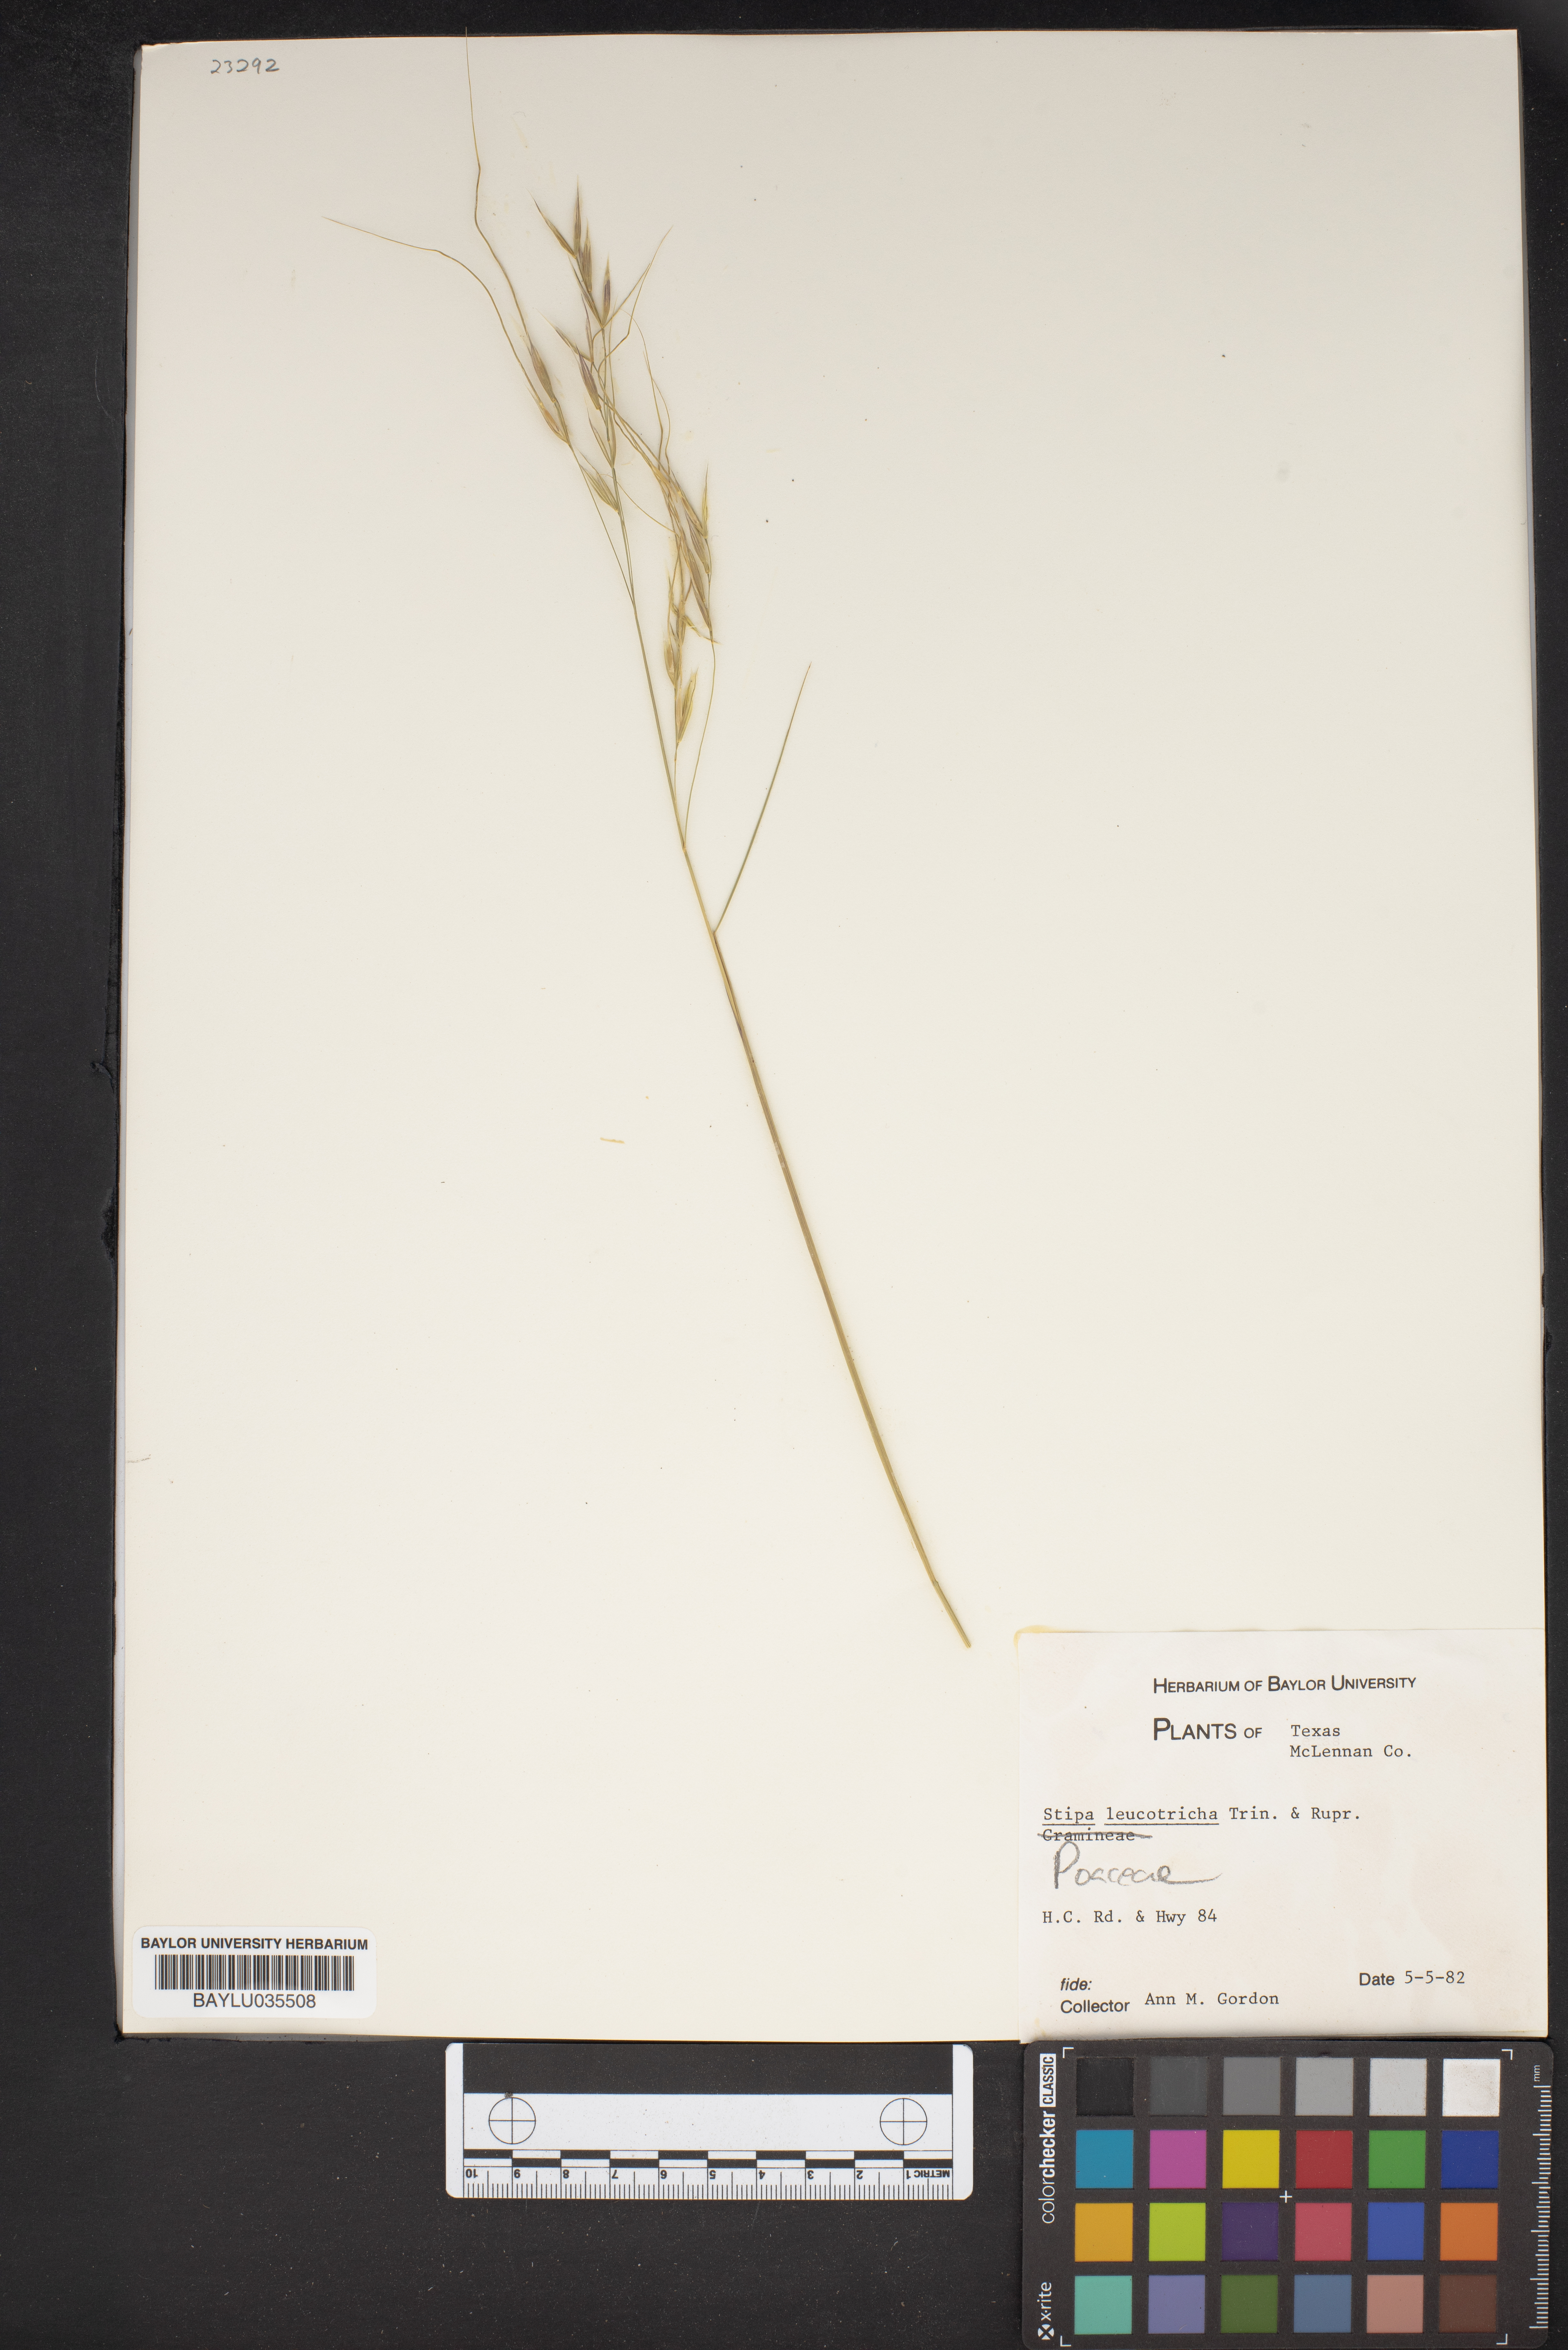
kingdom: Plantae
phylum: Tracheophyta
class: Liliopsida
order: Poales
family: Poaceae
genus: Nassella
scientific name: Nassella leucotricha
